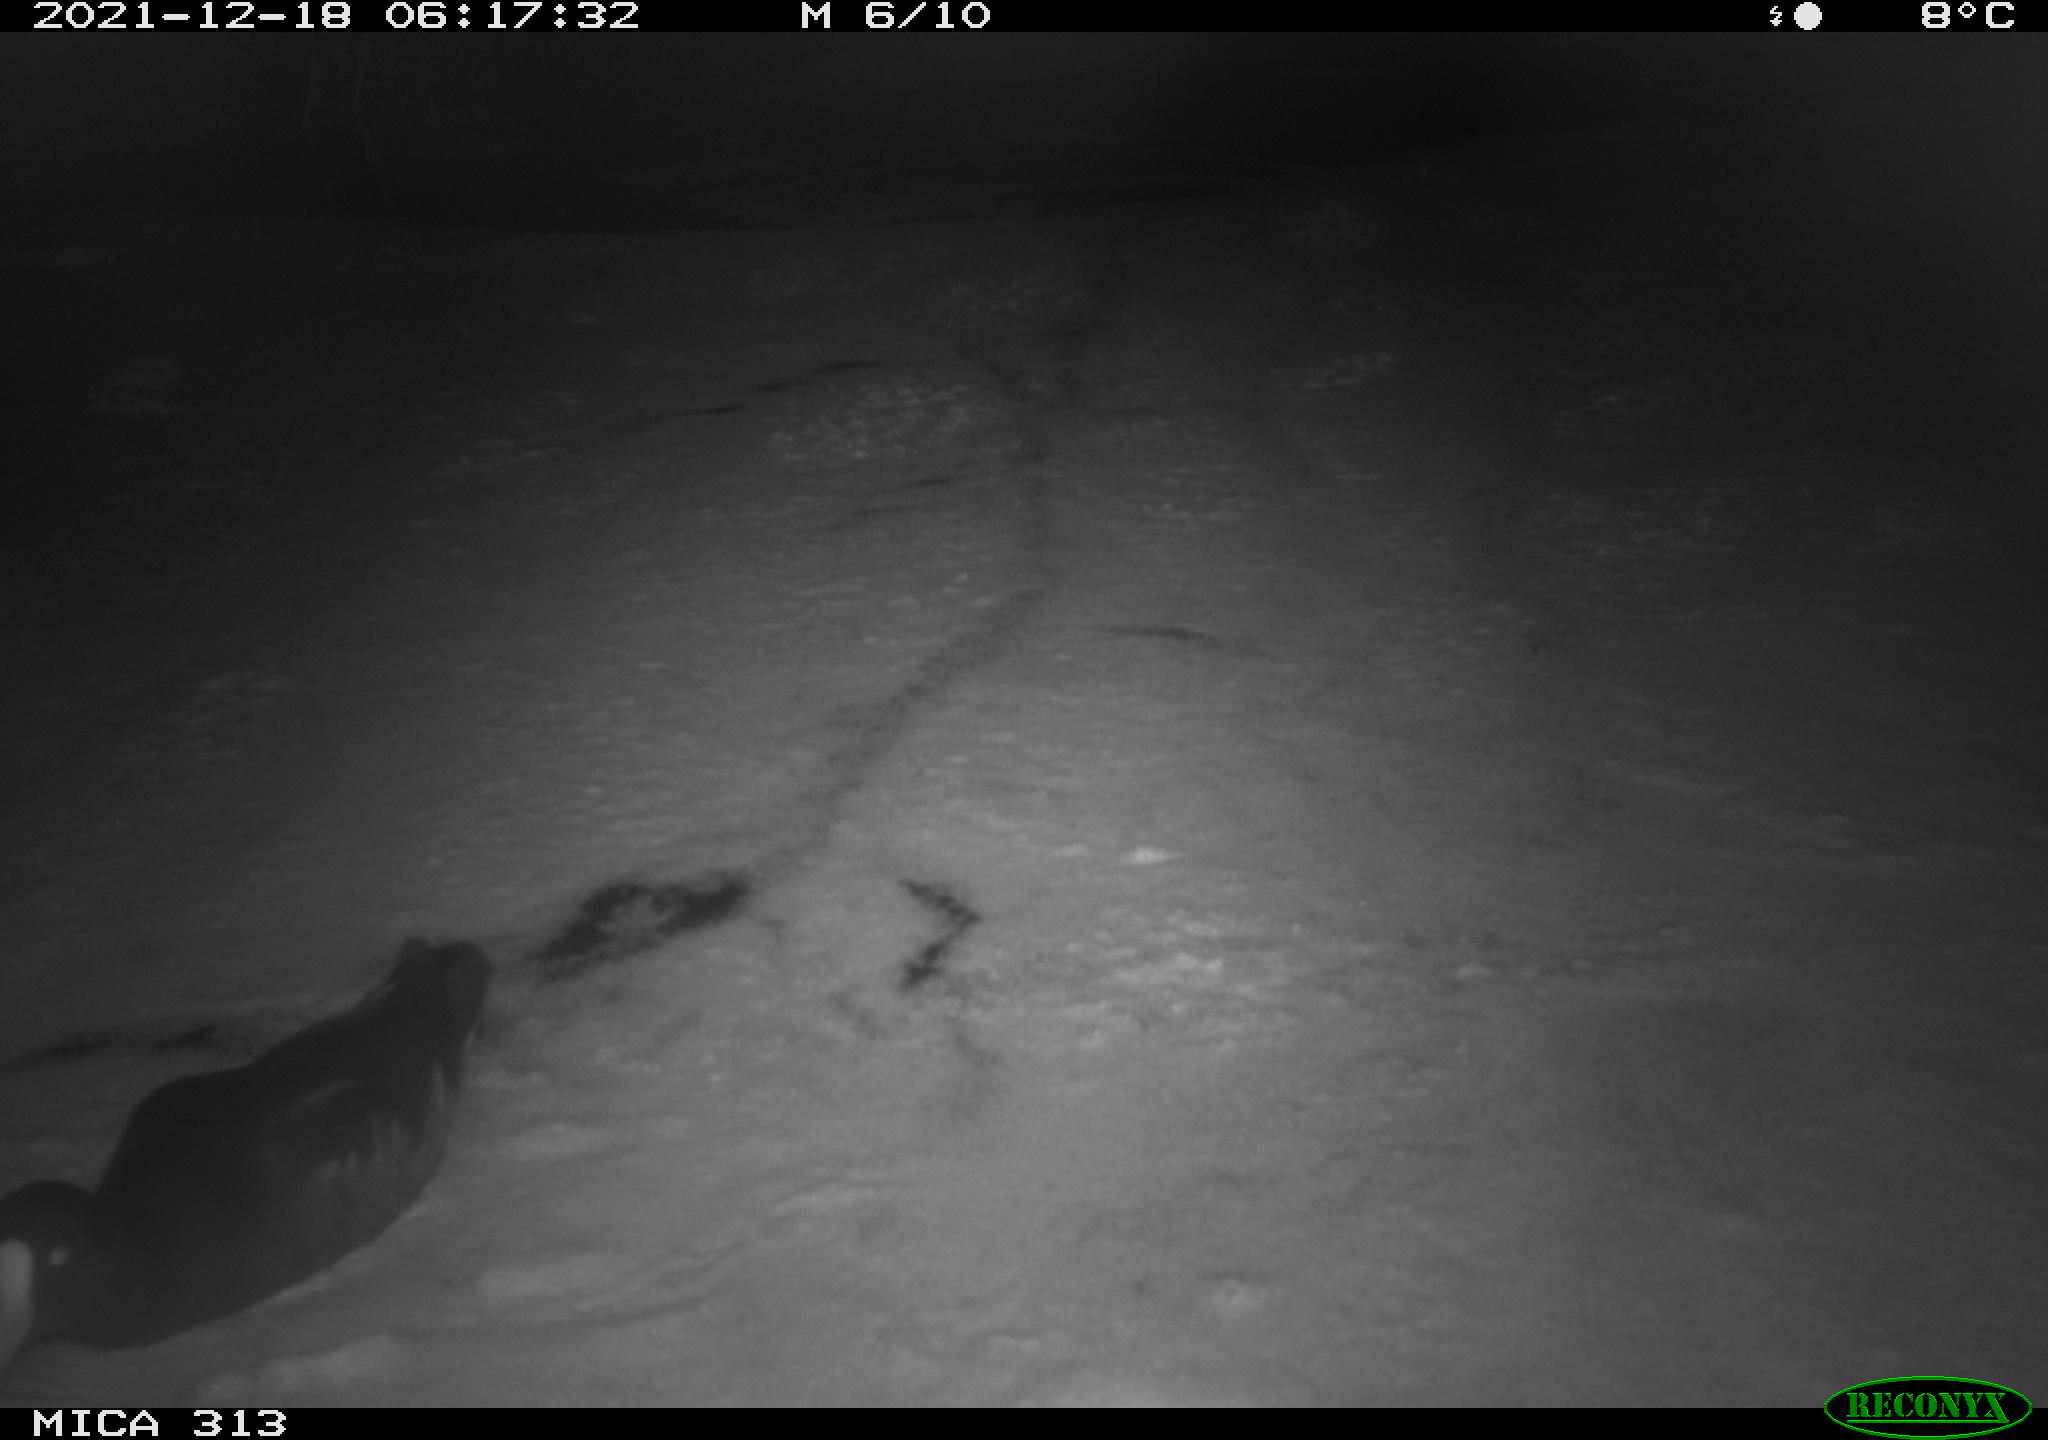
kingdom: Animalia
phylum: Chordata
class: Aves
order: Gruiformes
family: Rallidae
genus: Fulica
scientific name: Fulica atra
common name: Eurasian coot
